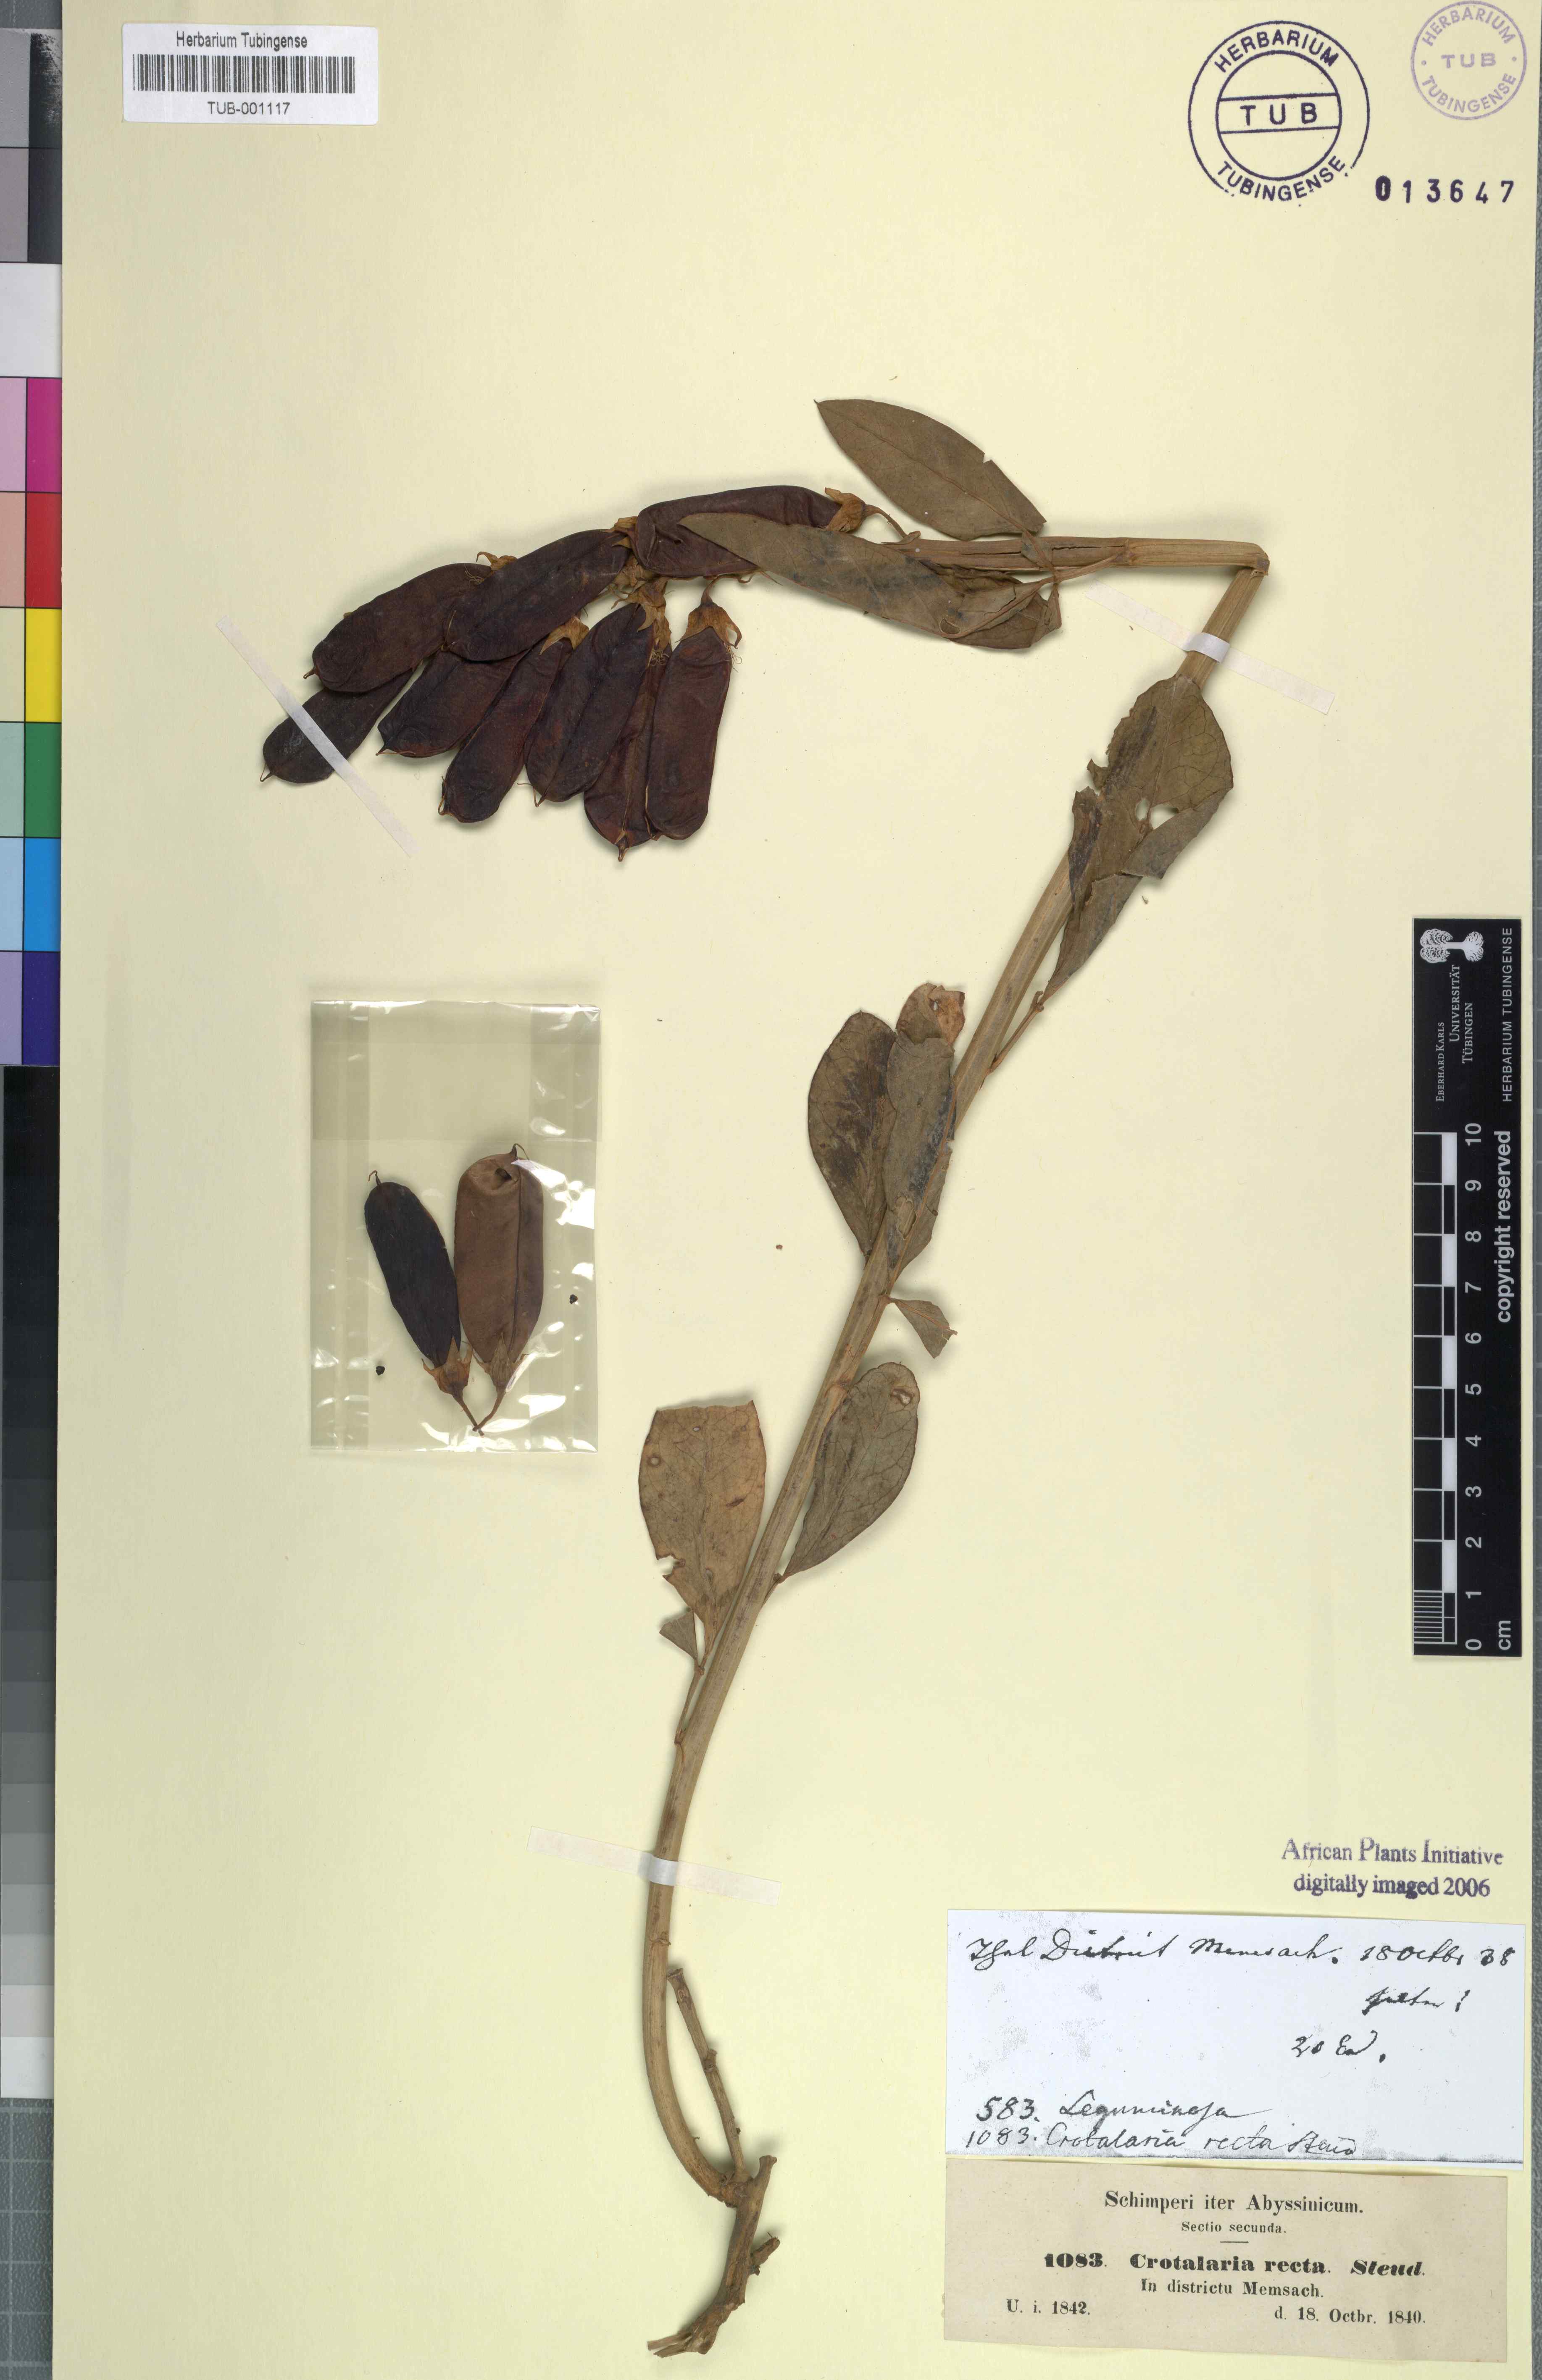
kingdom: Plantae
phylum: Tracheophyta
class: Magnoliopsida
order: Fabales
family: Fabaceae
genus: Crotalaria
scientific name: Crotalaria recta
